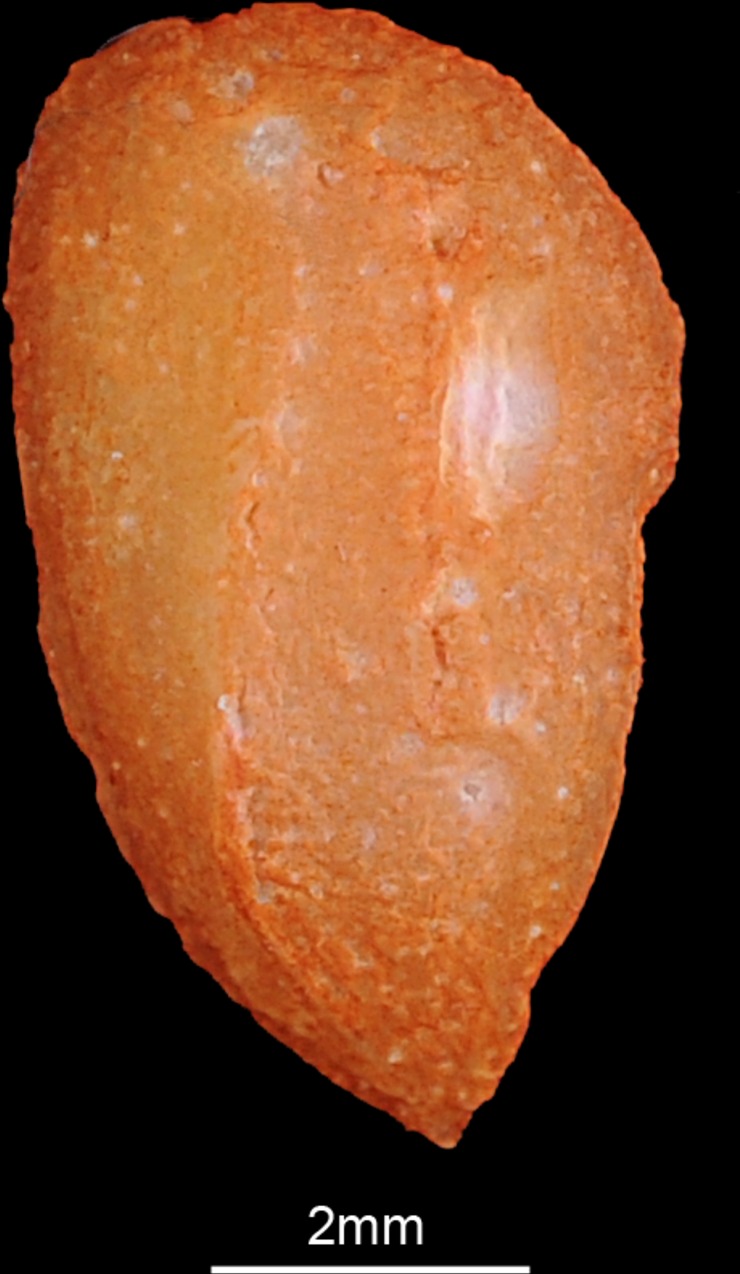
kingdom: Animalia
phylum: Chordata
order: Beloniformes
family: Hemiramphidae
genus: Hemiramphus
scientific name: Hemiramphus far
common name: Black-barred halfbeak
